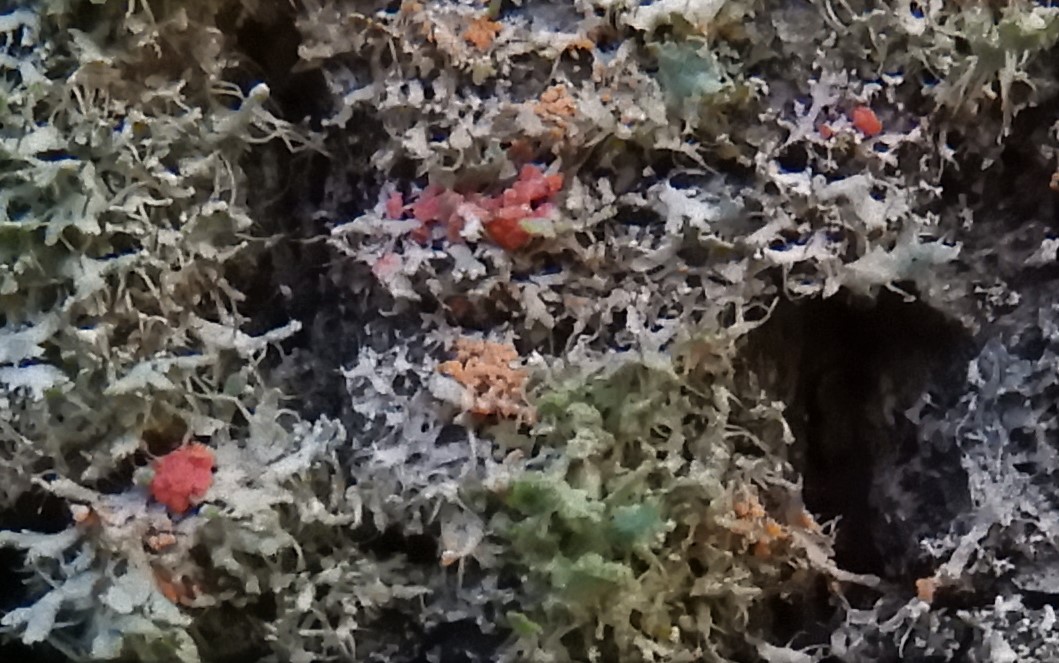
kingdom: Fungi
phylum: Ascomycota
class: Sordariomycetes
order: Hypocreales
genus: Illosporiopsis
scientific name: Illosporiopsis christiansenii
